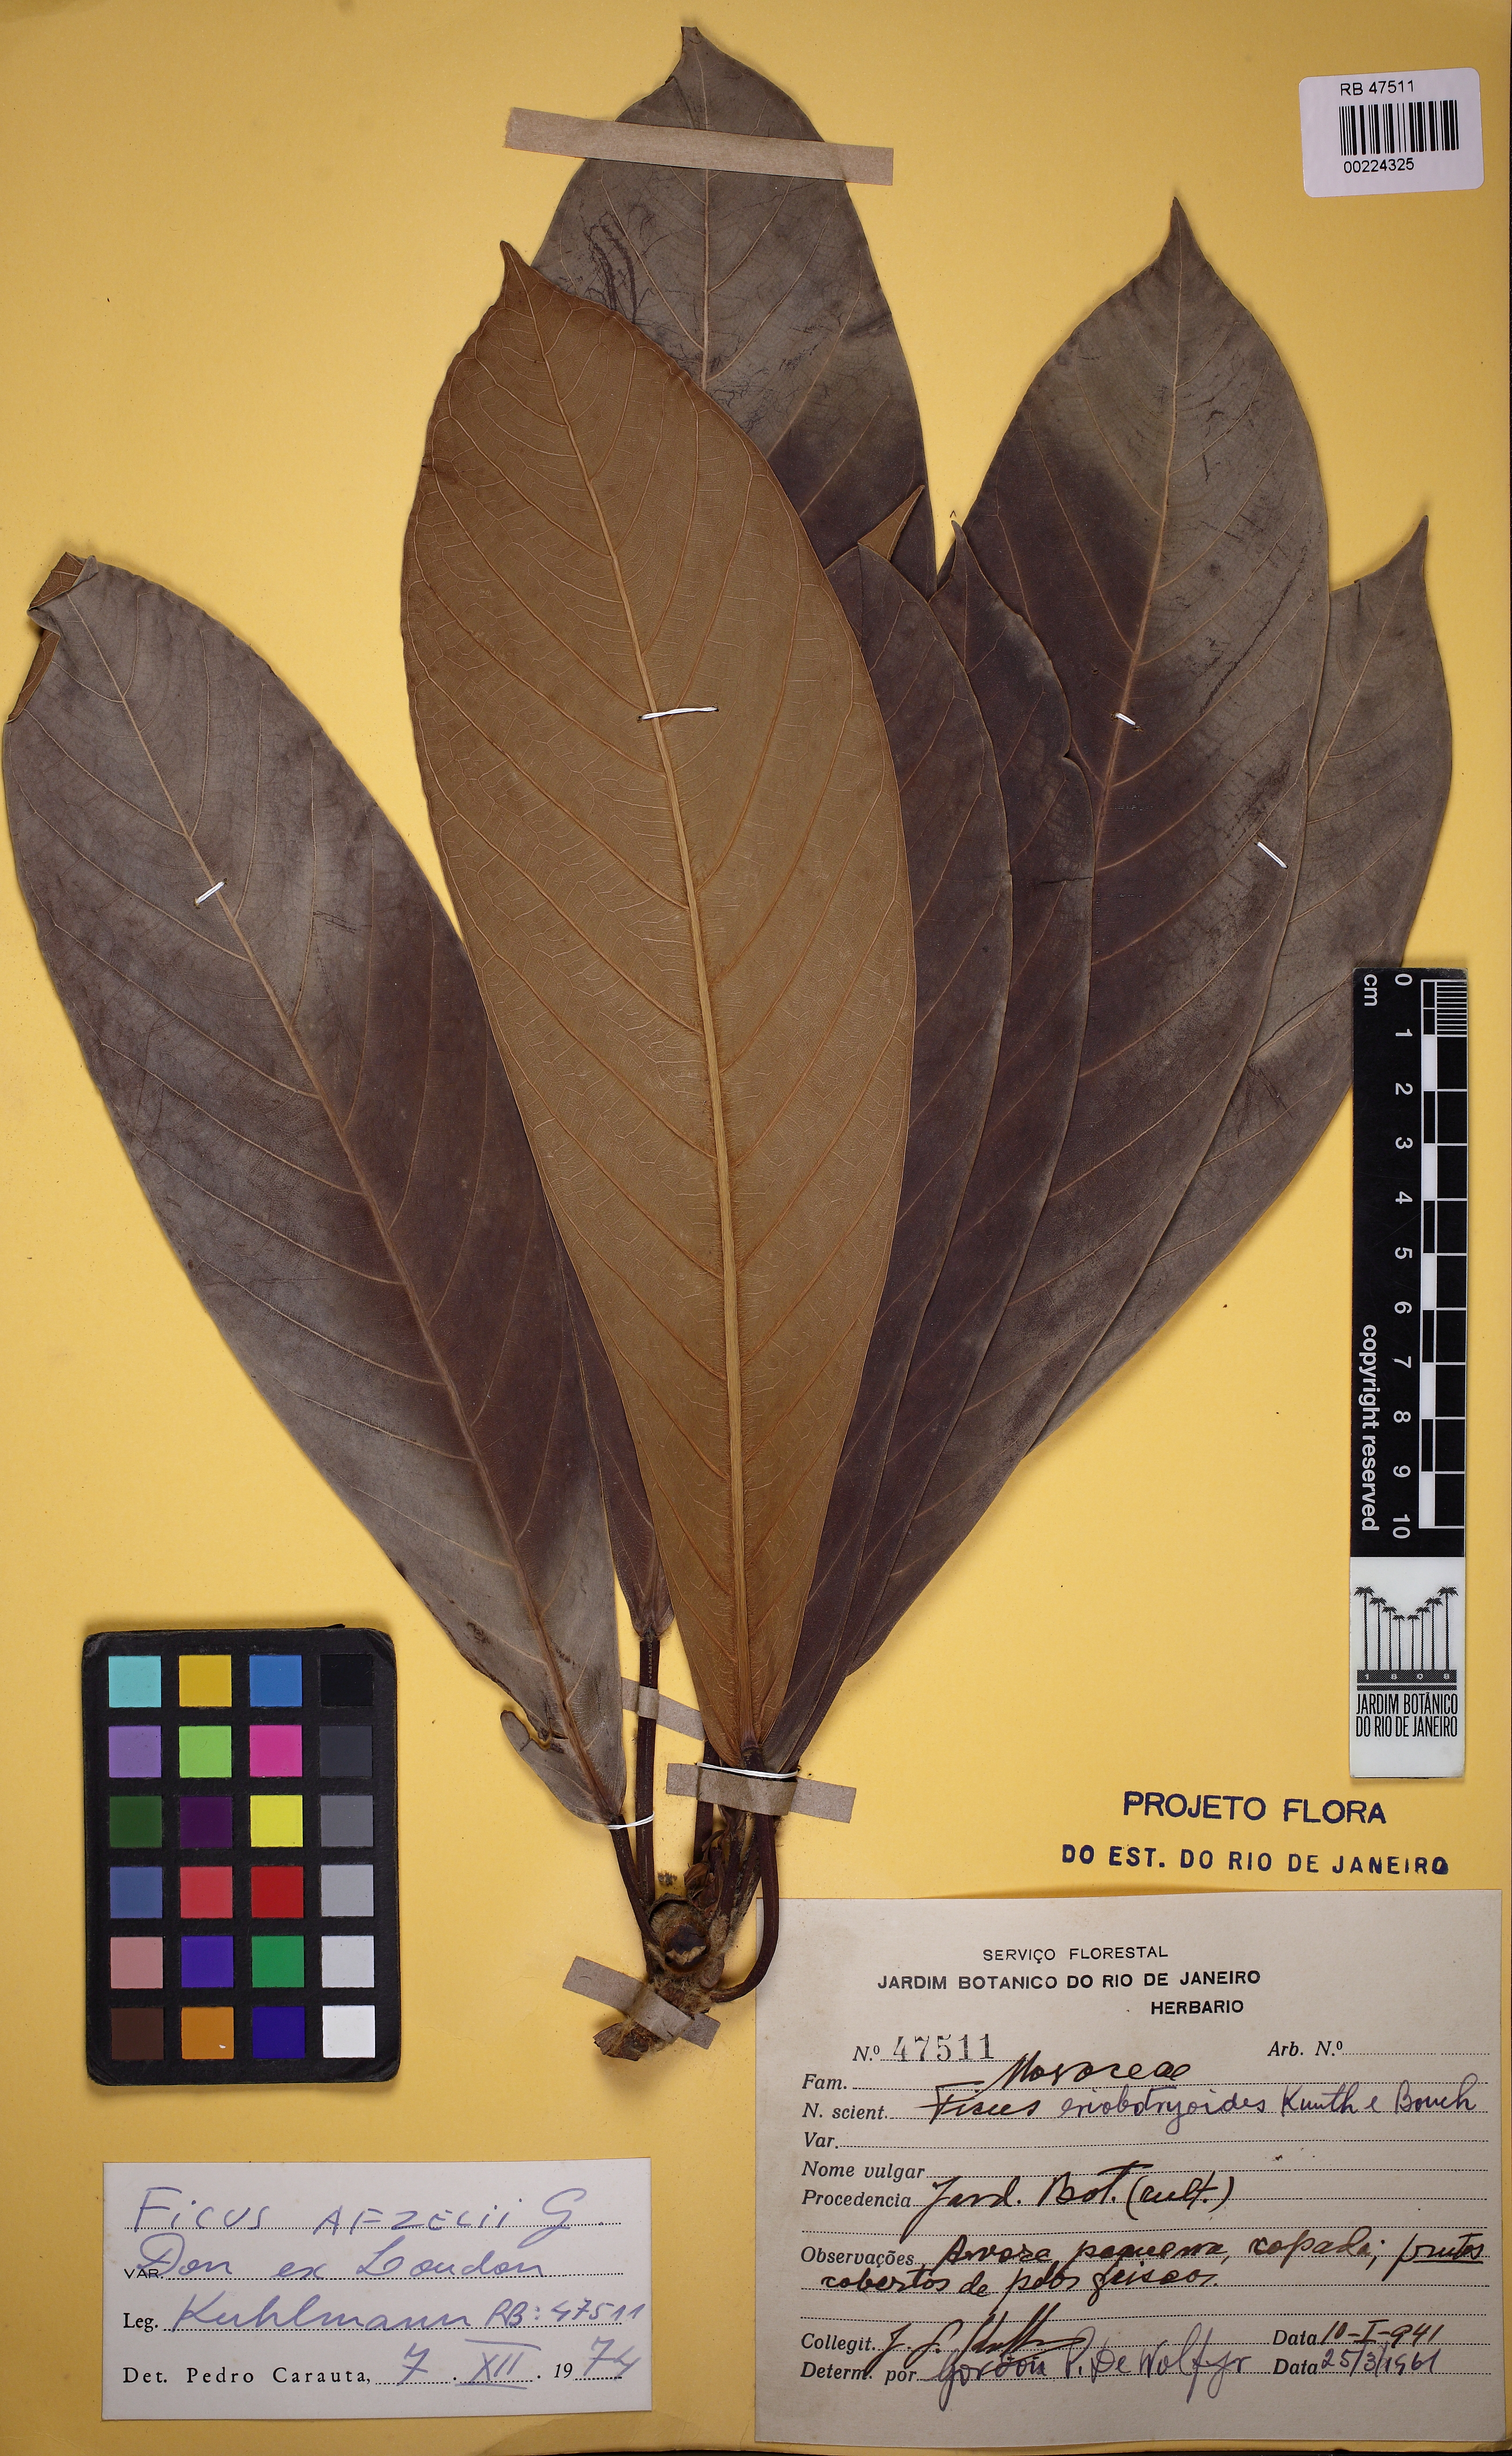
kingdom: Plantae
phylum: Tracheophyta
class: Magnoliopsida
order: Rosales
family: Moraceae
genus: Ficus
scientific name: Ficus saussureana
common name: Loquat-leaf fig
